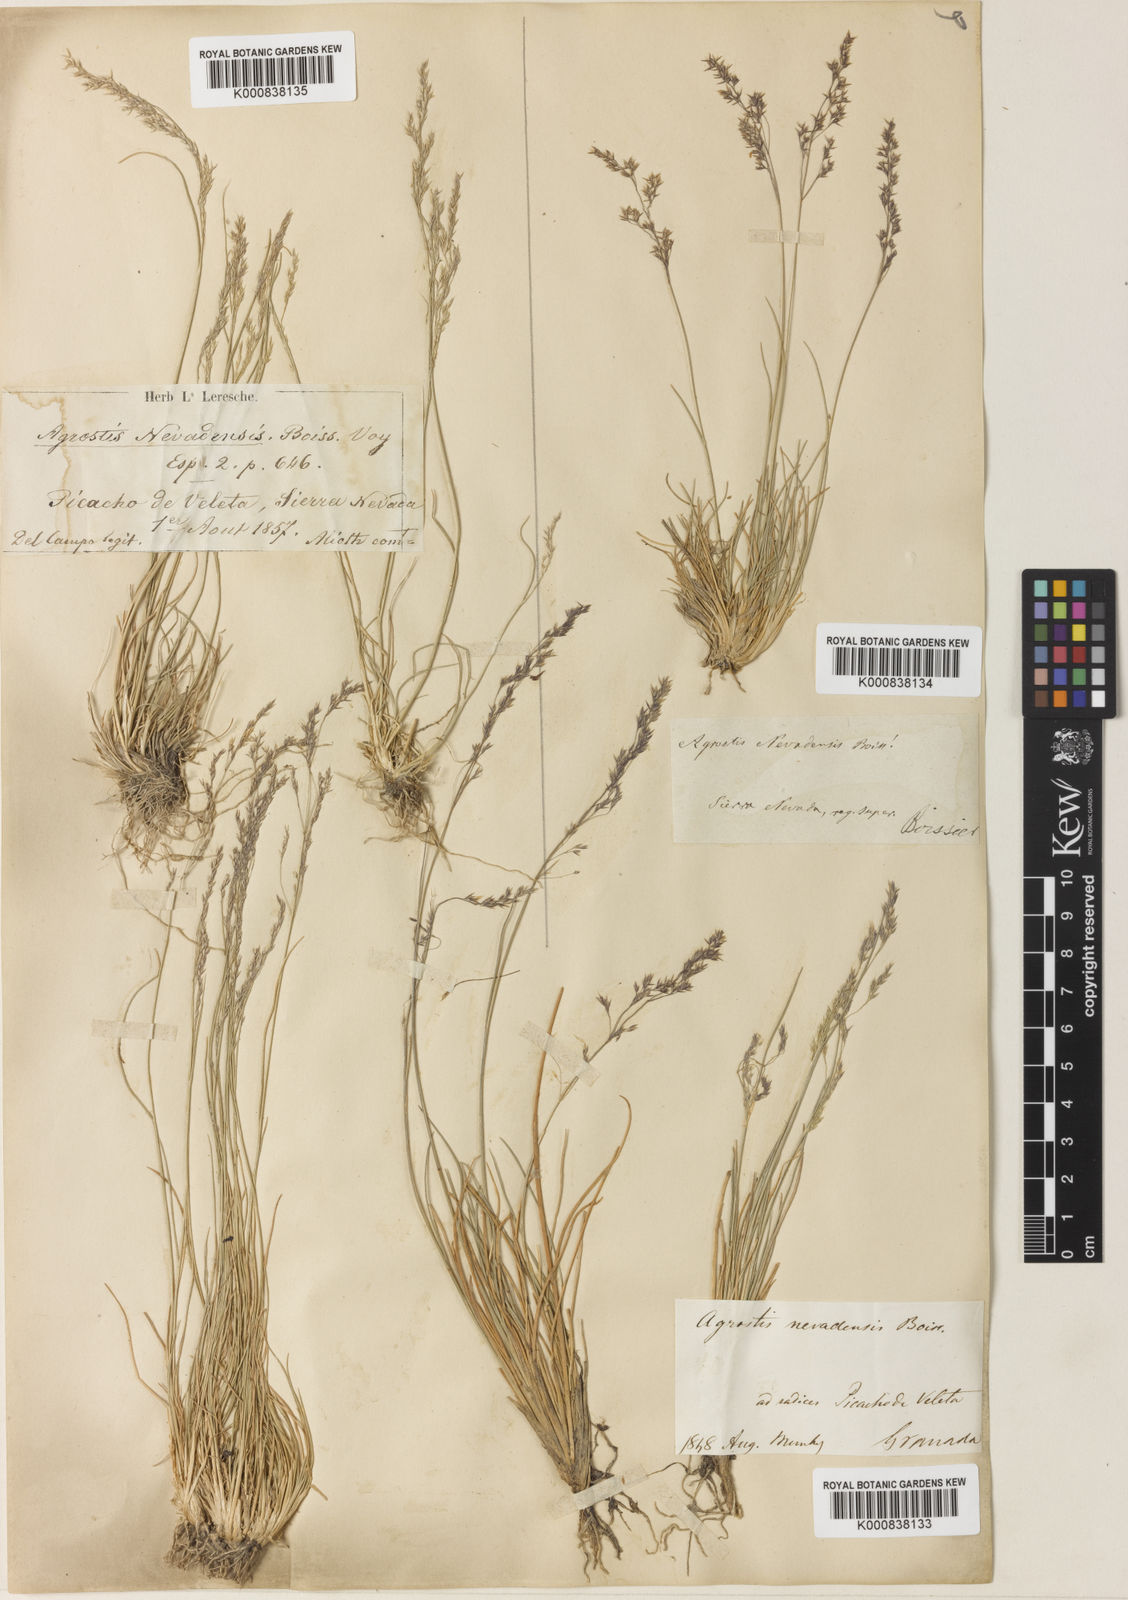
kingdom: Plantae
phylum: Tracheophyta
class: Liliopsida
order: Poales
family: Poaceae
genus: Agrostis
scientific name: Agrostis nevadensis
